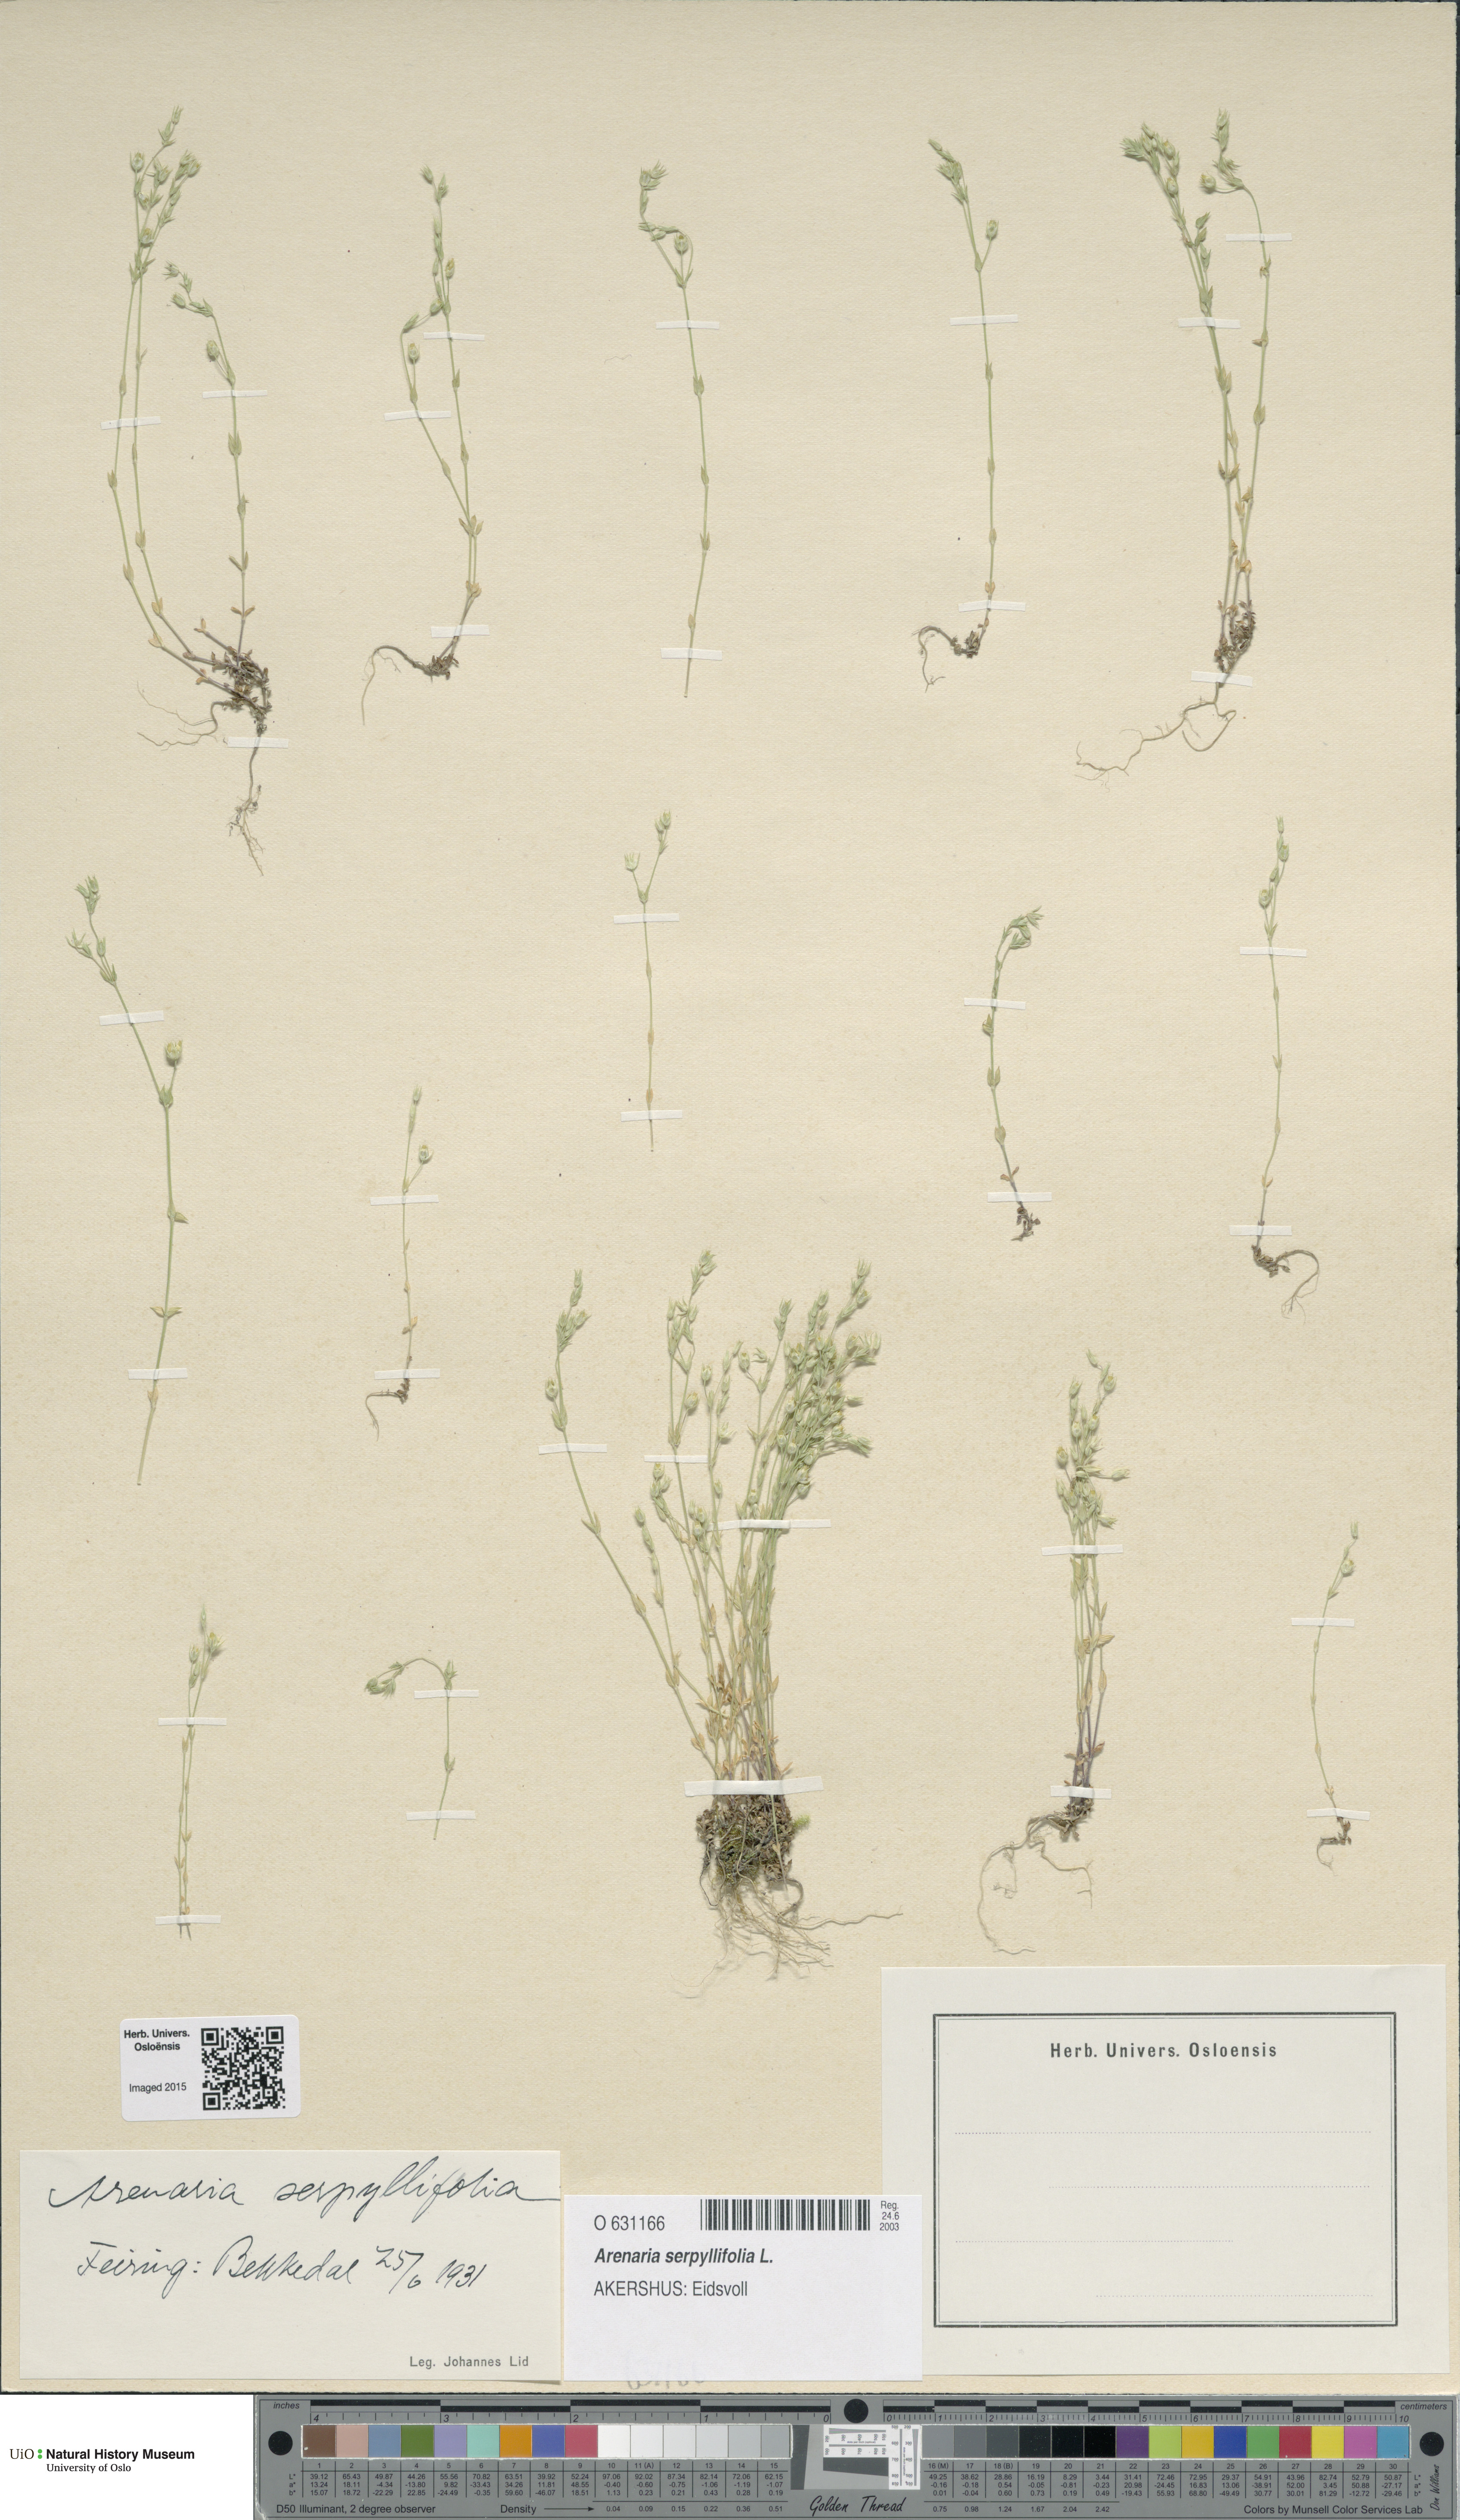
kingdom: Plantae
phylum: Tracheophyta
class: Magnoliopsida
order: Caryophyllales
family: Caryophyllaceae
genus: Arenaria
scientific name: Arenaria serpyllifolia
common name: Thyme-leaved sandwort
